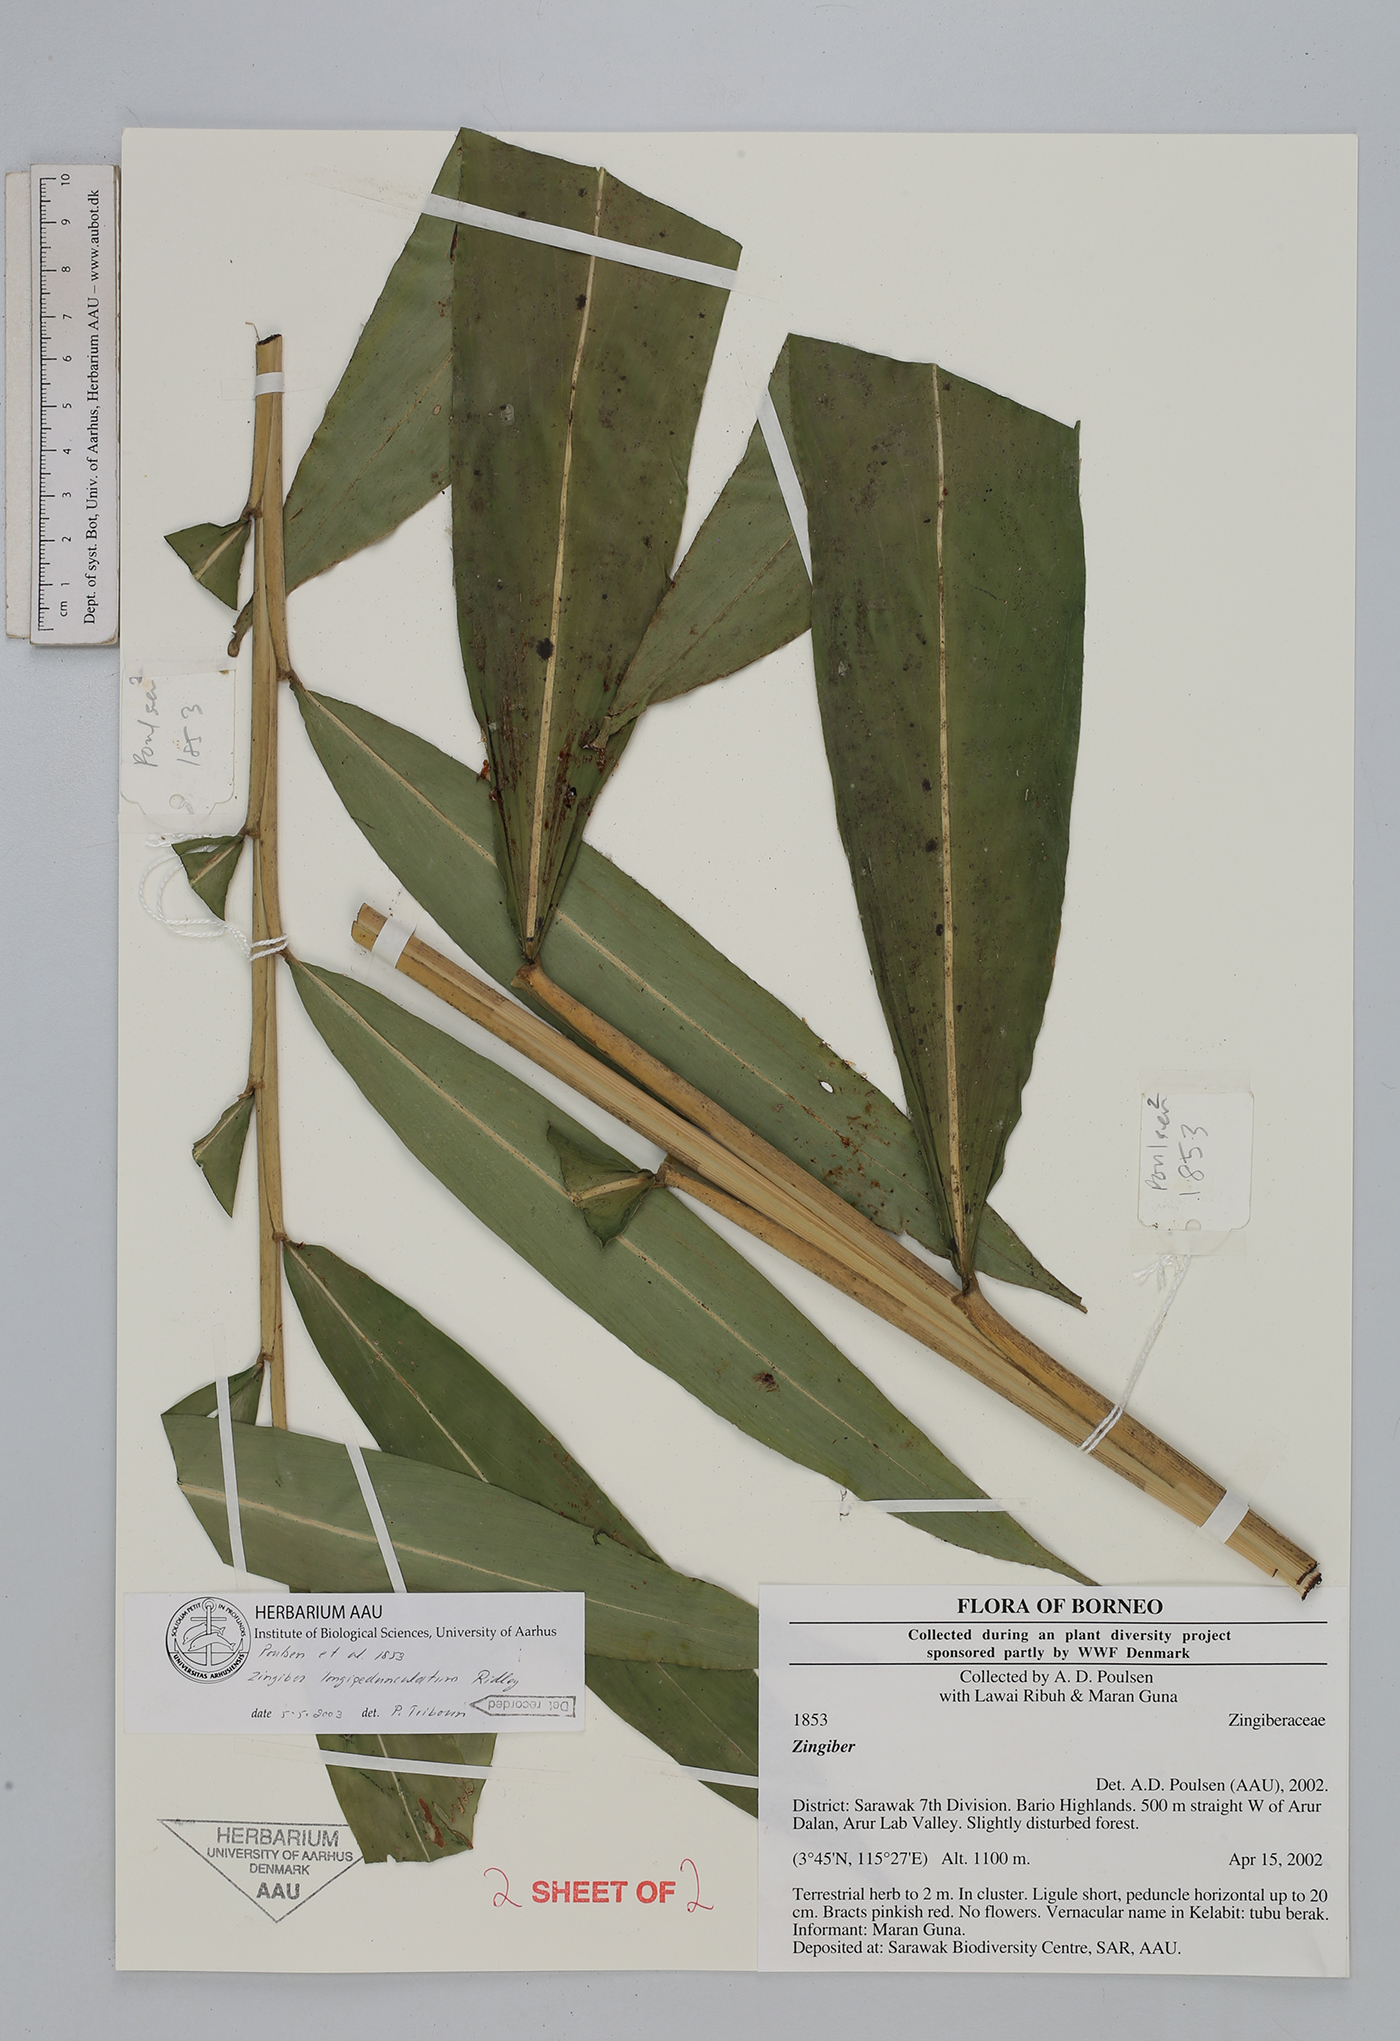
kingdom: Plantae
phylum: Tracheophyta
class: Liliopsida
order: Zingiberales
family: Zingiberaceae
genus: Zingiber
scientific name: Zingiber longipedunculatum
